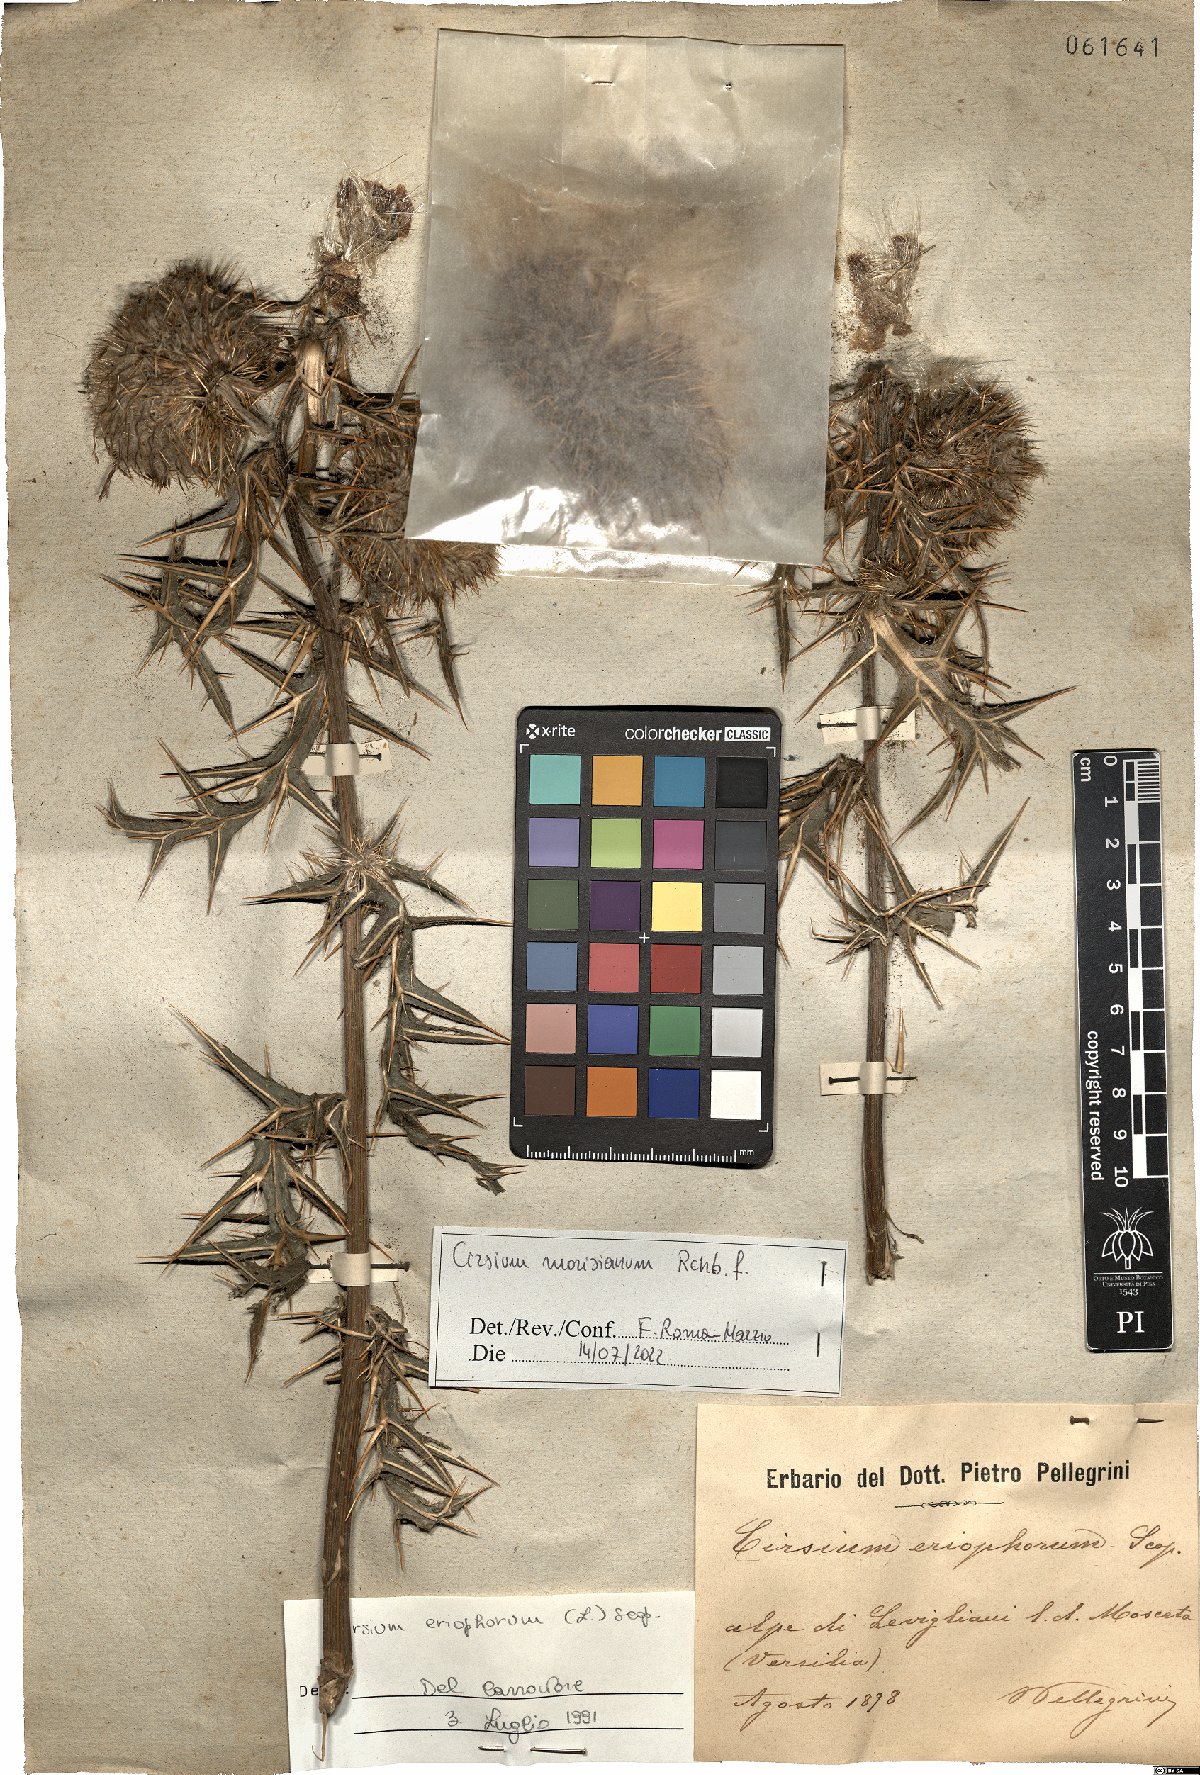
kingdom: Plantae
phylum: Tracheophyta
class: Magnoliopsida
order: Asterales
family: Asteraceae
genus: Lophiolepis
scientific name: Lophiolepis morisiana
